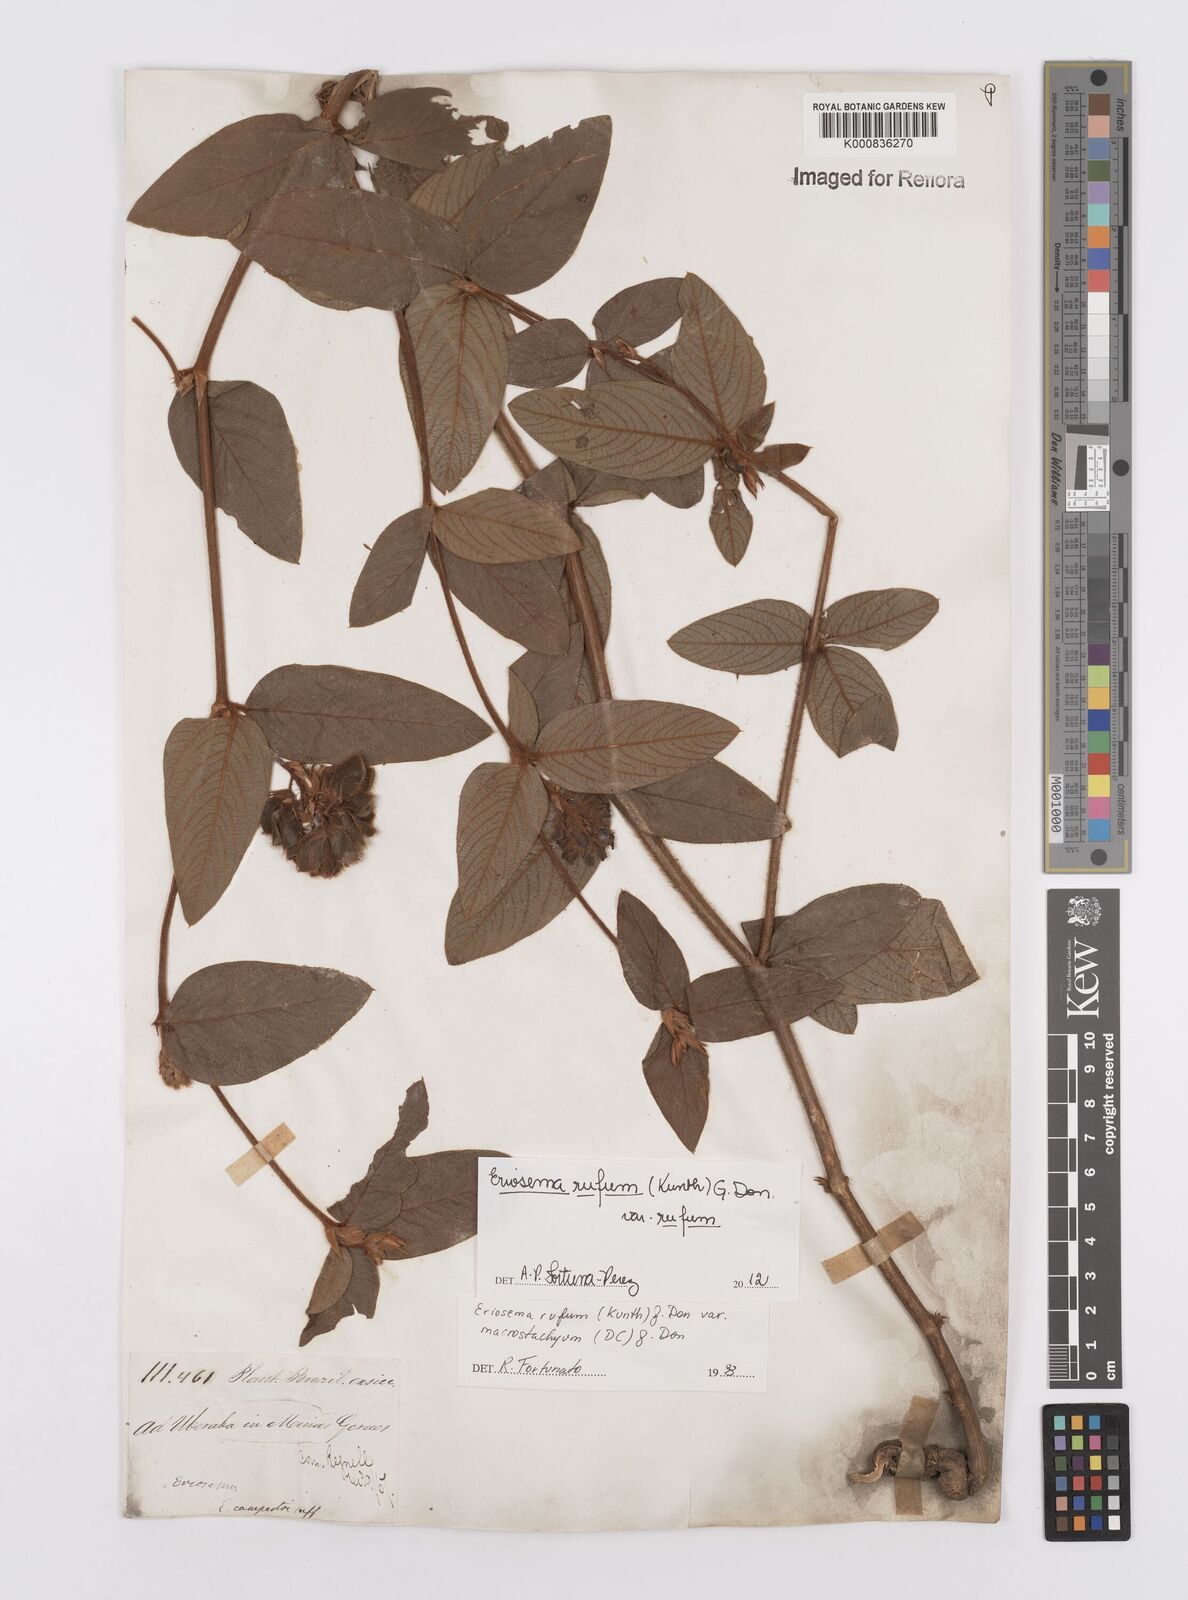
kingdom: Plantae
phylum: Tracheophyta
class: Magnoliopsida
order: Fabales
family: Fabaceae
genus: Eriosema
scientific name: Eriosema rufum
